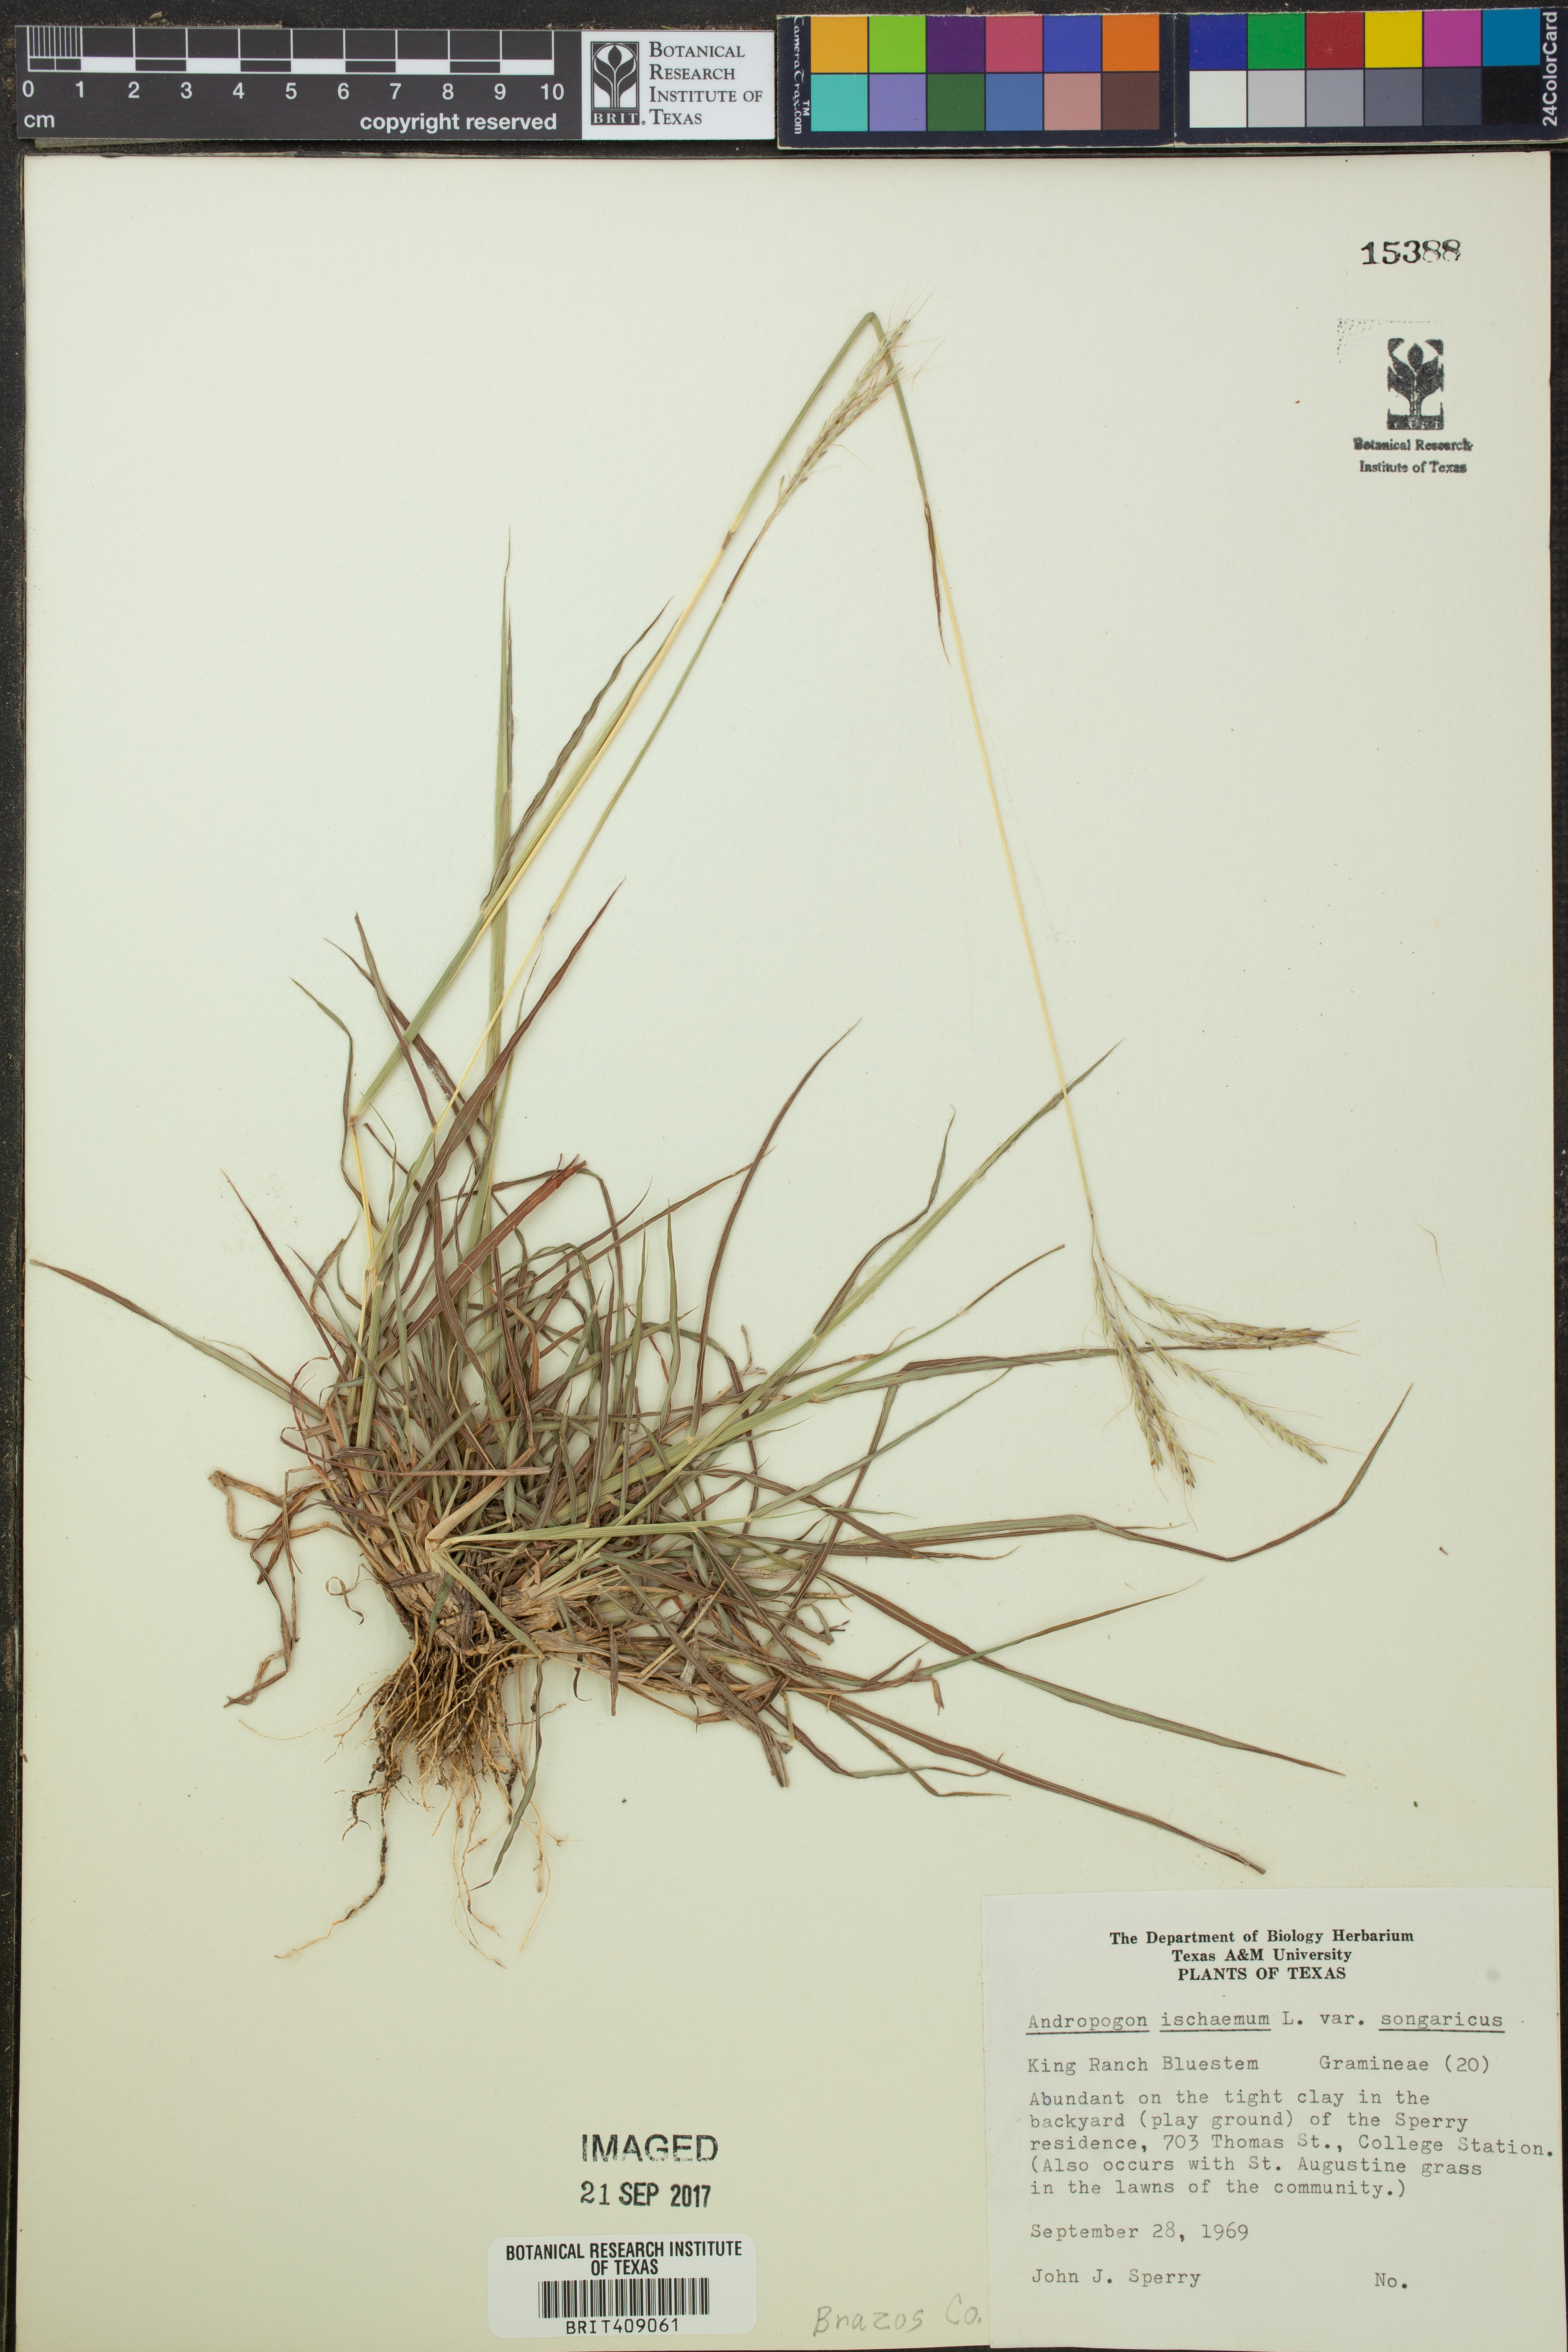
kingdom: Plantae
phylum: Tracheophyta
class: Liliopsida
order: Poales
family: Poaceae
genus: Bothriochloa
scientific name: Bothriochloa ischaemum
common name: Yellow bluestem
